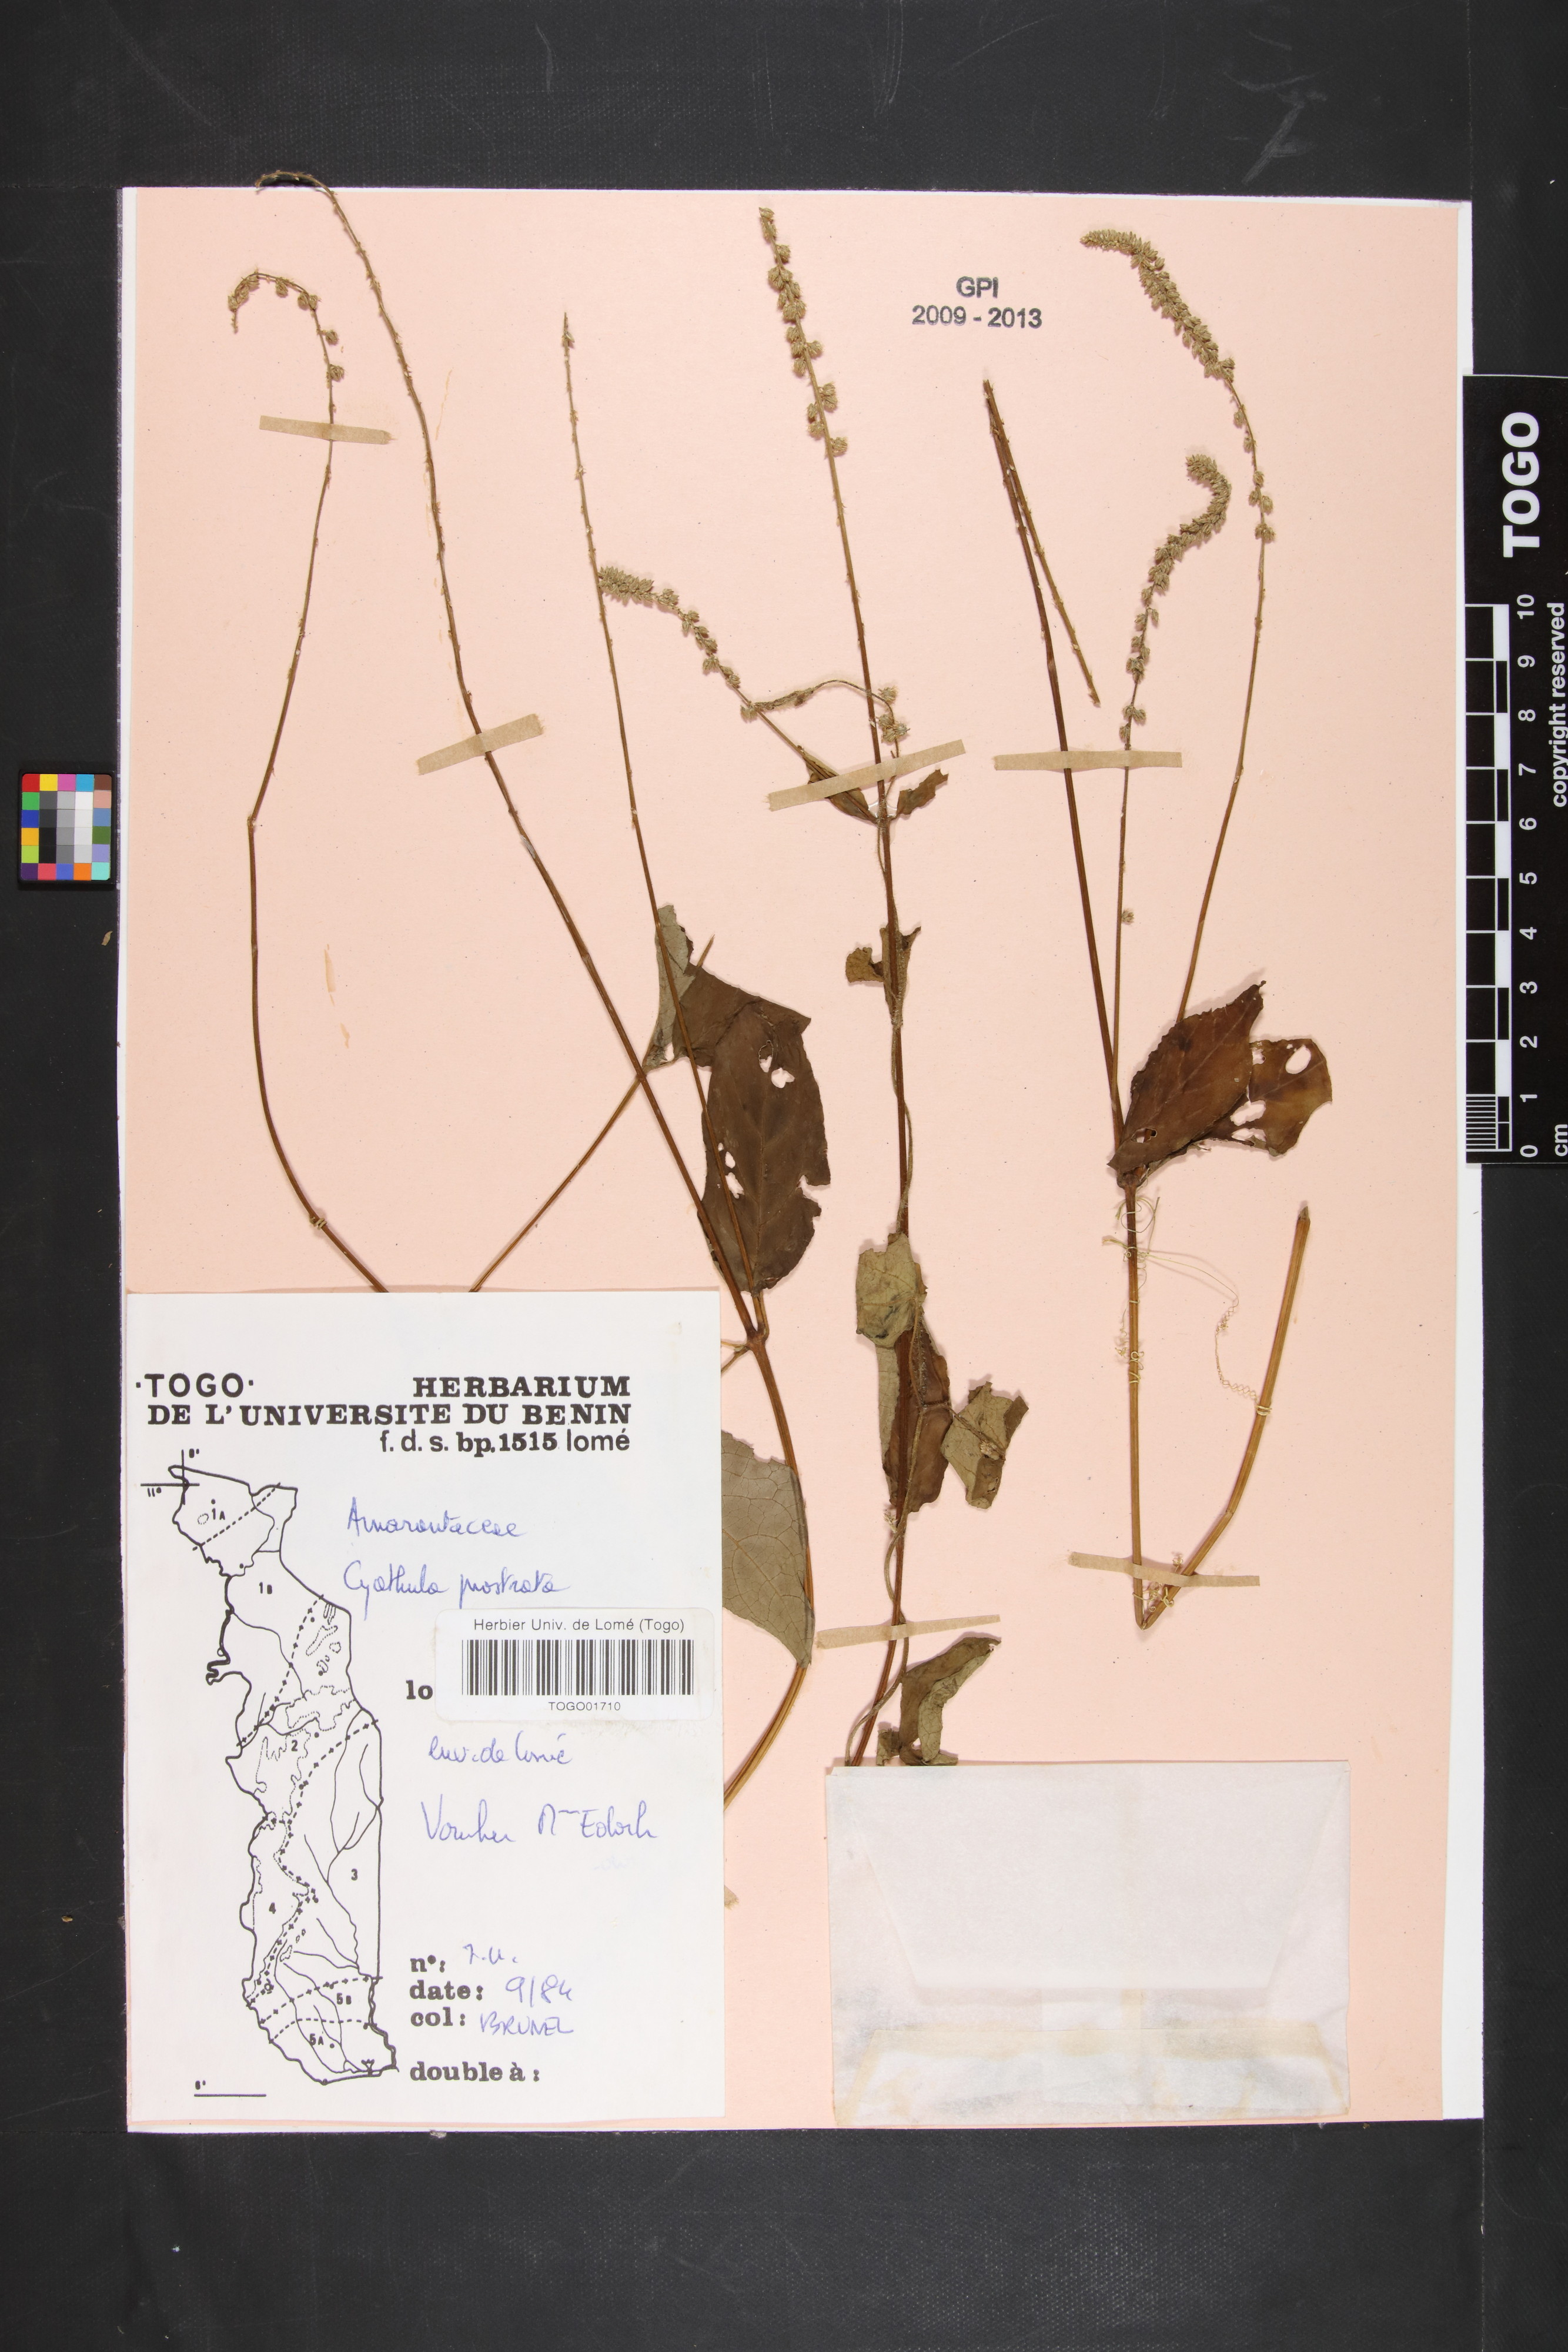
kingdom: Plantae
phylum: Tracheophyta
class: Magnoliopsida
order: Caryophyllales
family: Amaranthaceae
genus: Cyathula
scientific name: Cyathula prostrata
